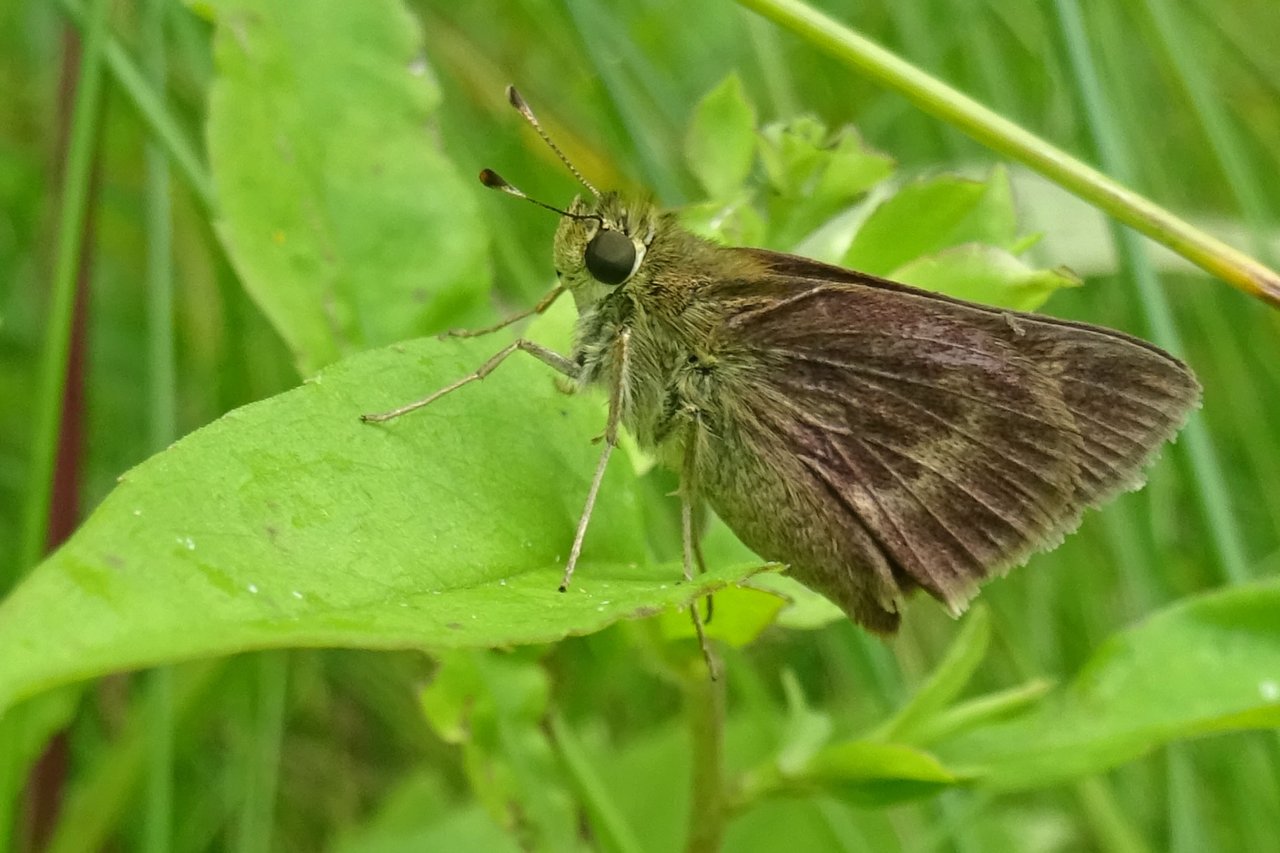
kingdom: Animalia
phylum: Arthropoda
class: Insecta
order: Lepidoptera
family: Hesperiidae
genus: Polites
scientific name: Polites egeremet
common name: Northern Broken-Dash
